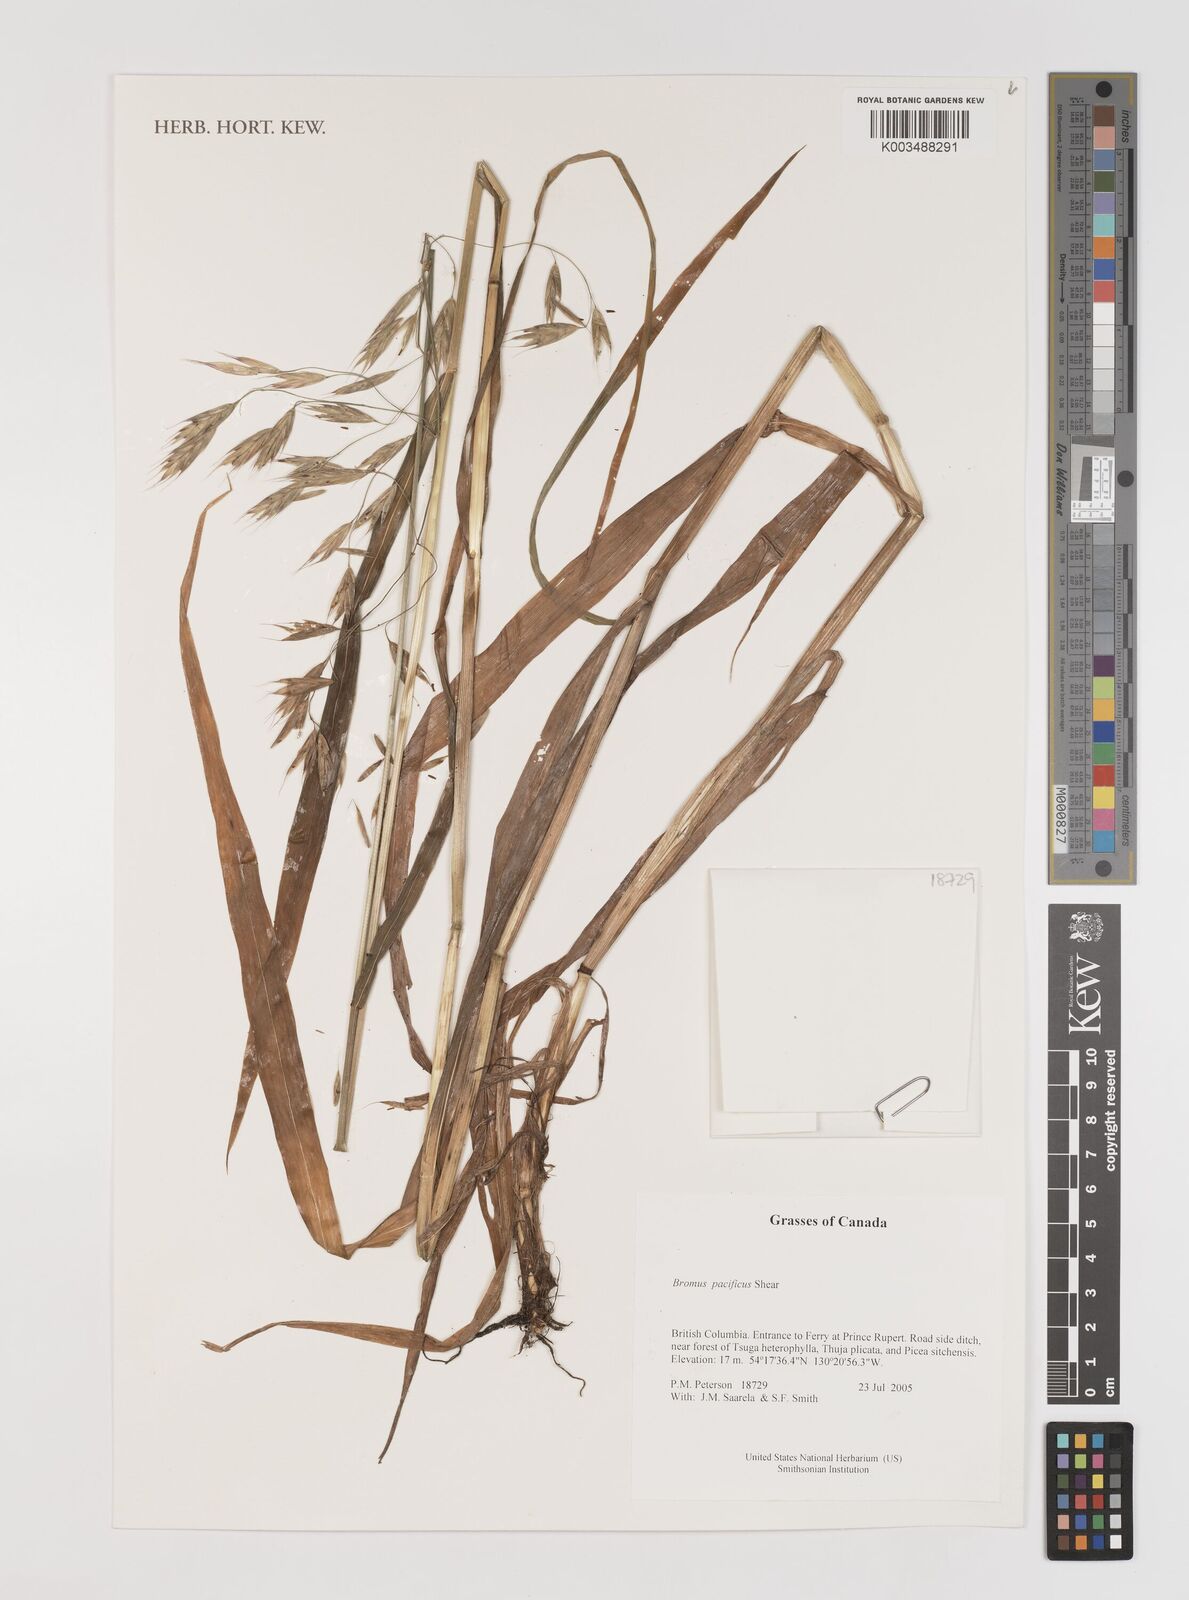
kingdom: Plantae
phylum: Tracheophyta
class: Liliopsida
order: Poales
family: Poaceae
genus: Bromus
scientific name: Bromus pacificus
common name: Pacific brome
